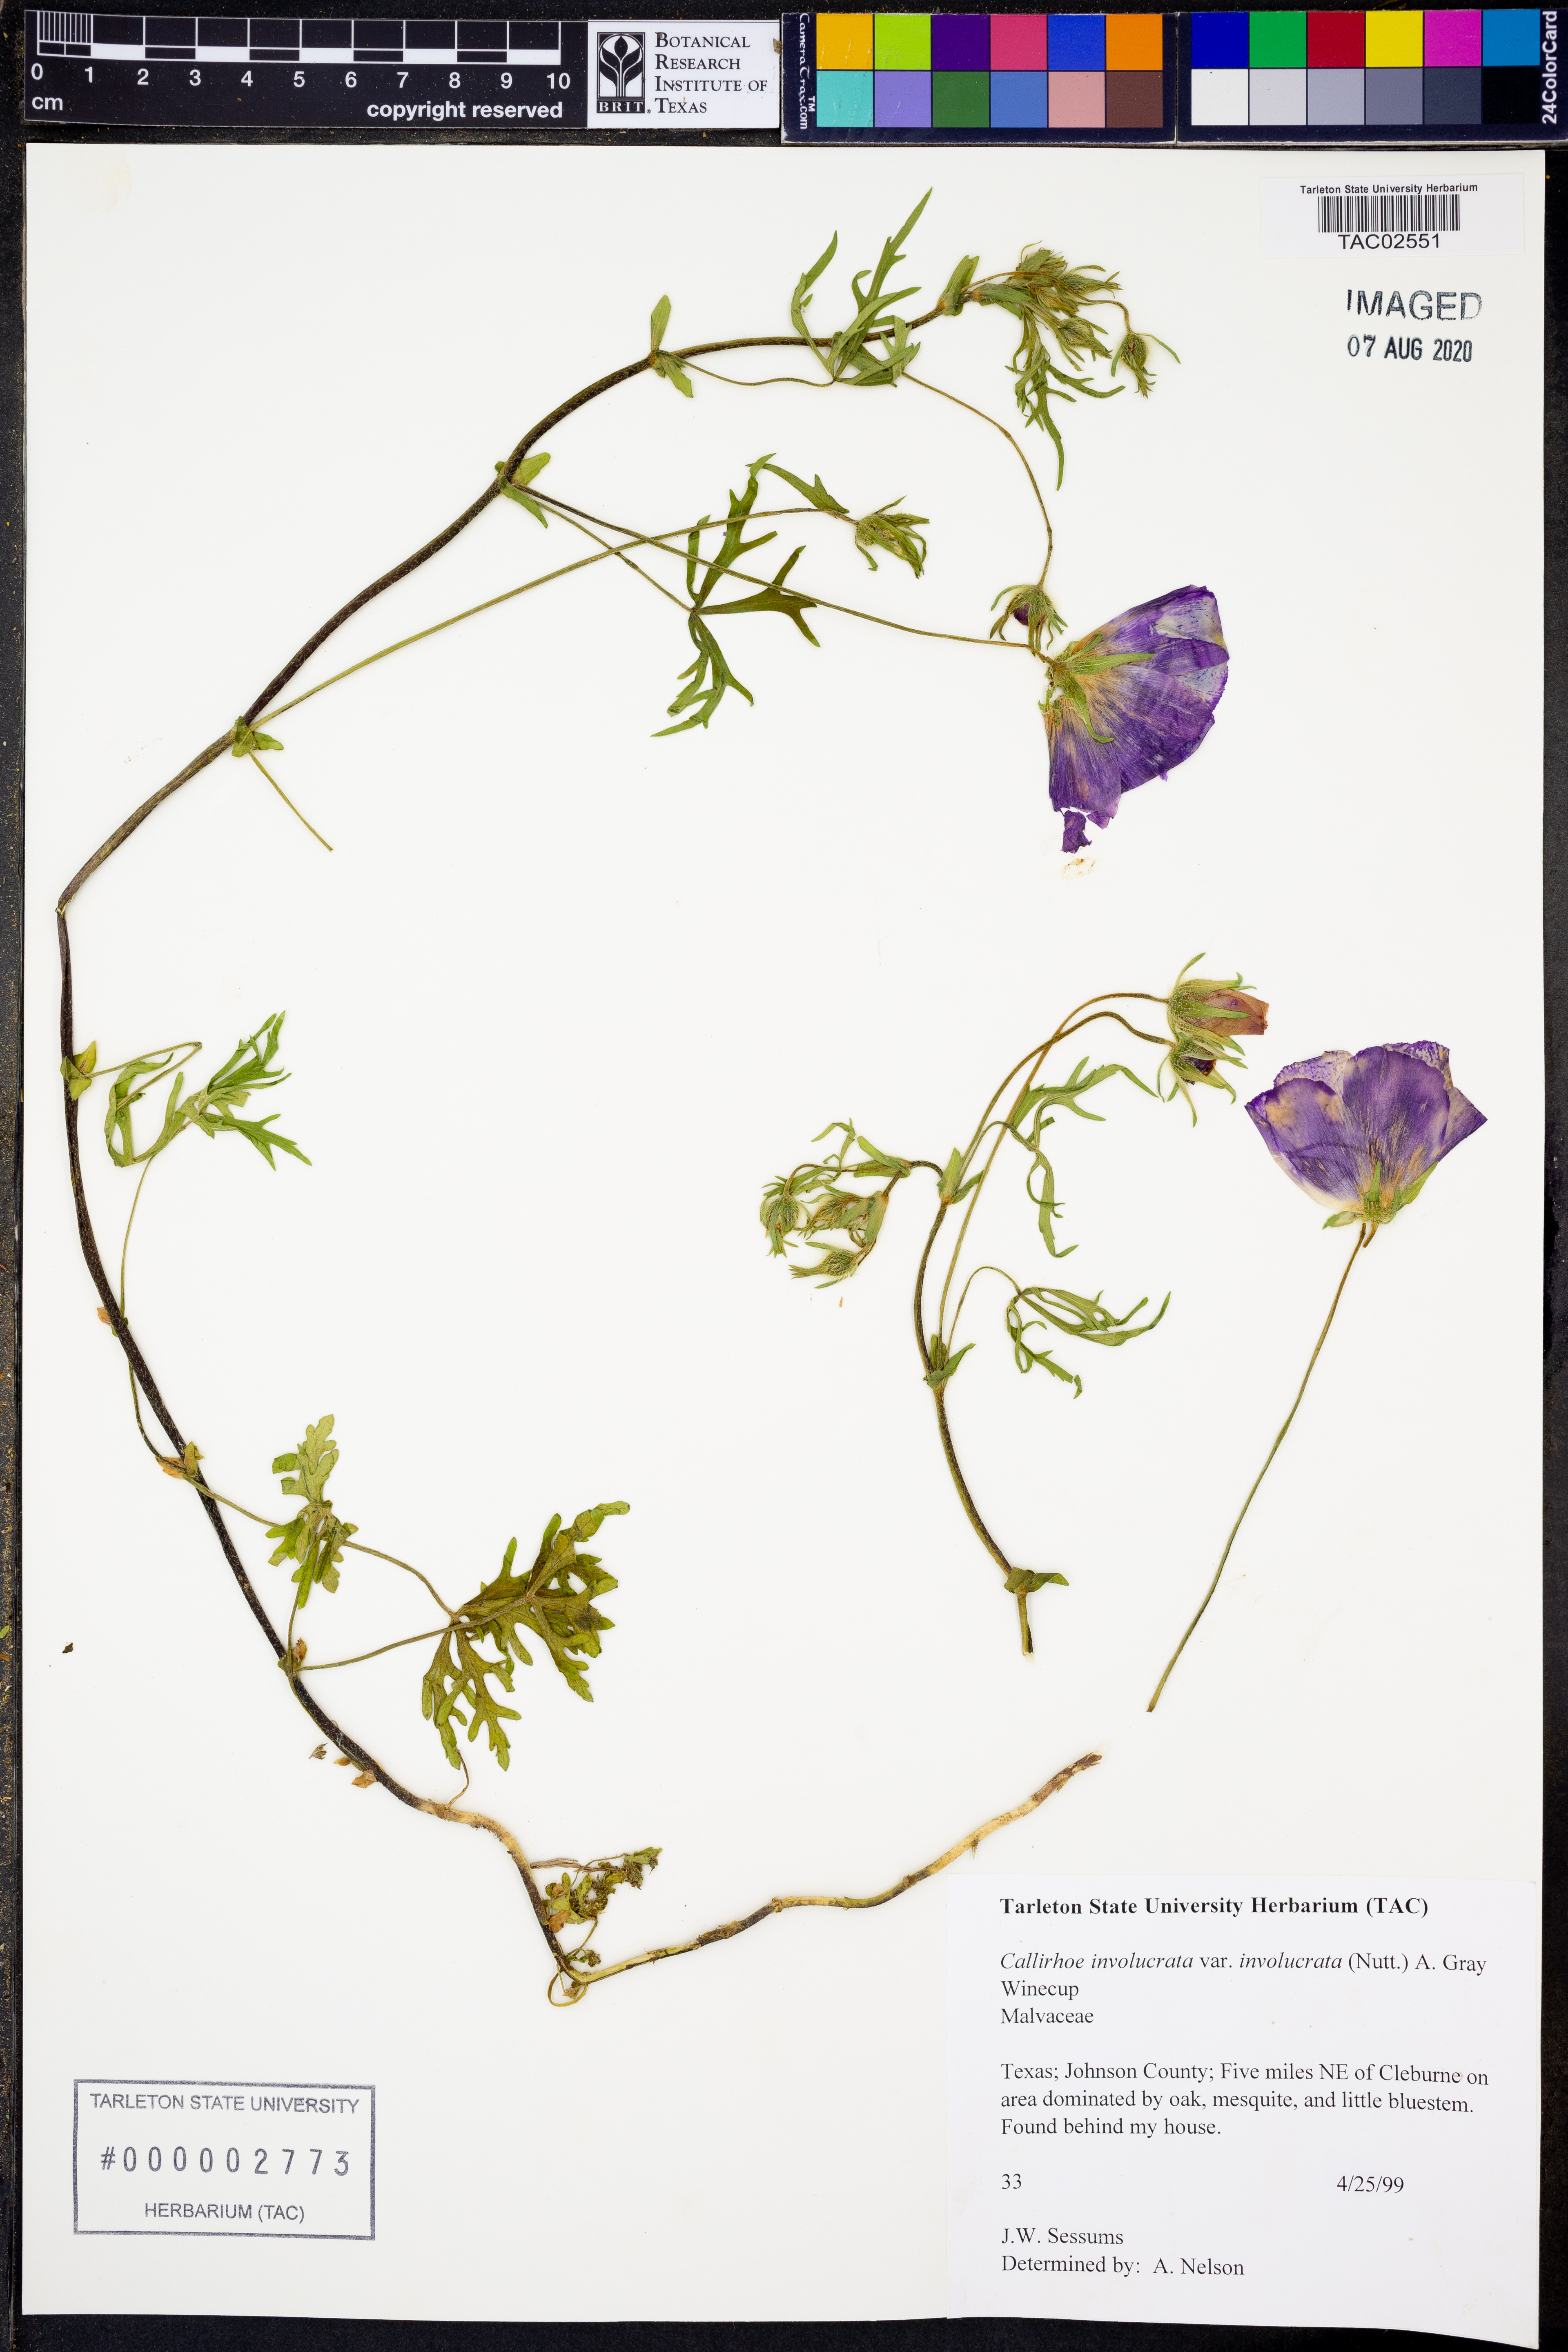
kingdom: Plantae
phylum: Tracheophyta
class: Magnoliopsida
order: Malvales
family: Malvaceae
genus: Callirhoe
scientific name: Callirhoe involucrata
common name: Purple poppy-mallow
